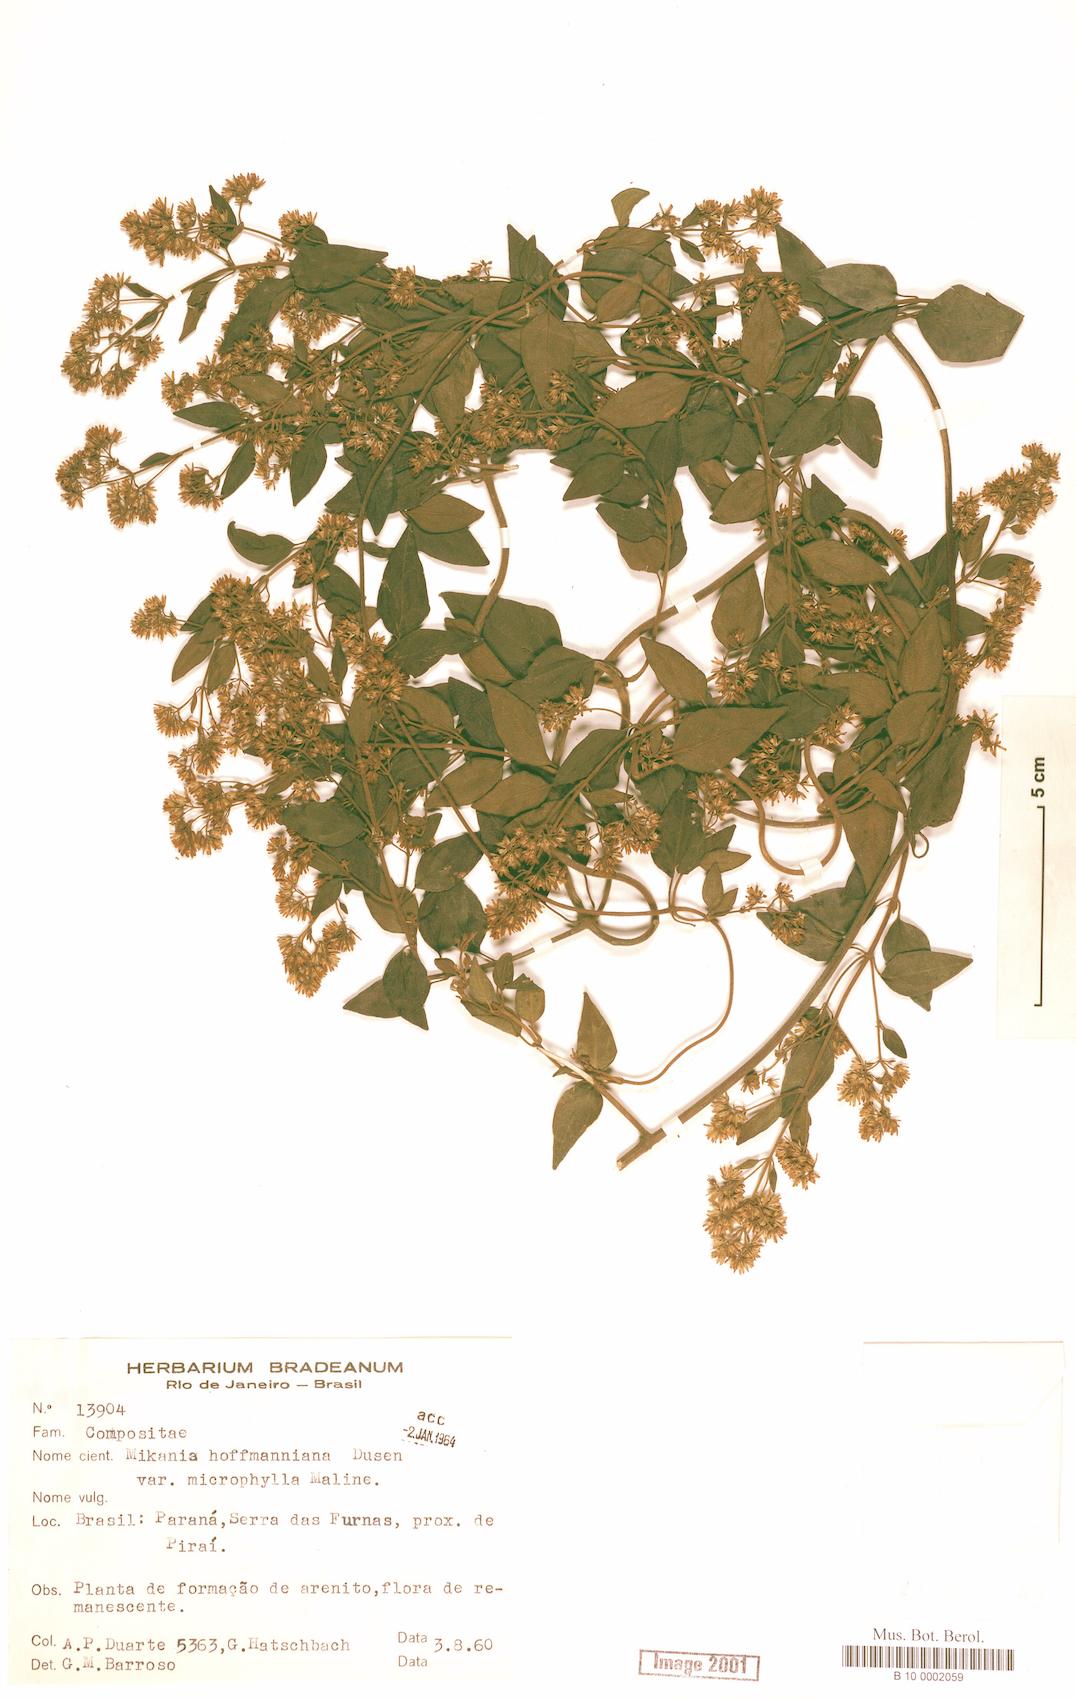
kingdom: Plantae
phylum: Tracheophyta
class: Magnoliopsida
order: Asterales
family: Asteraceae
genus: Mikania
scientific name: Mikania hoffmanniana
